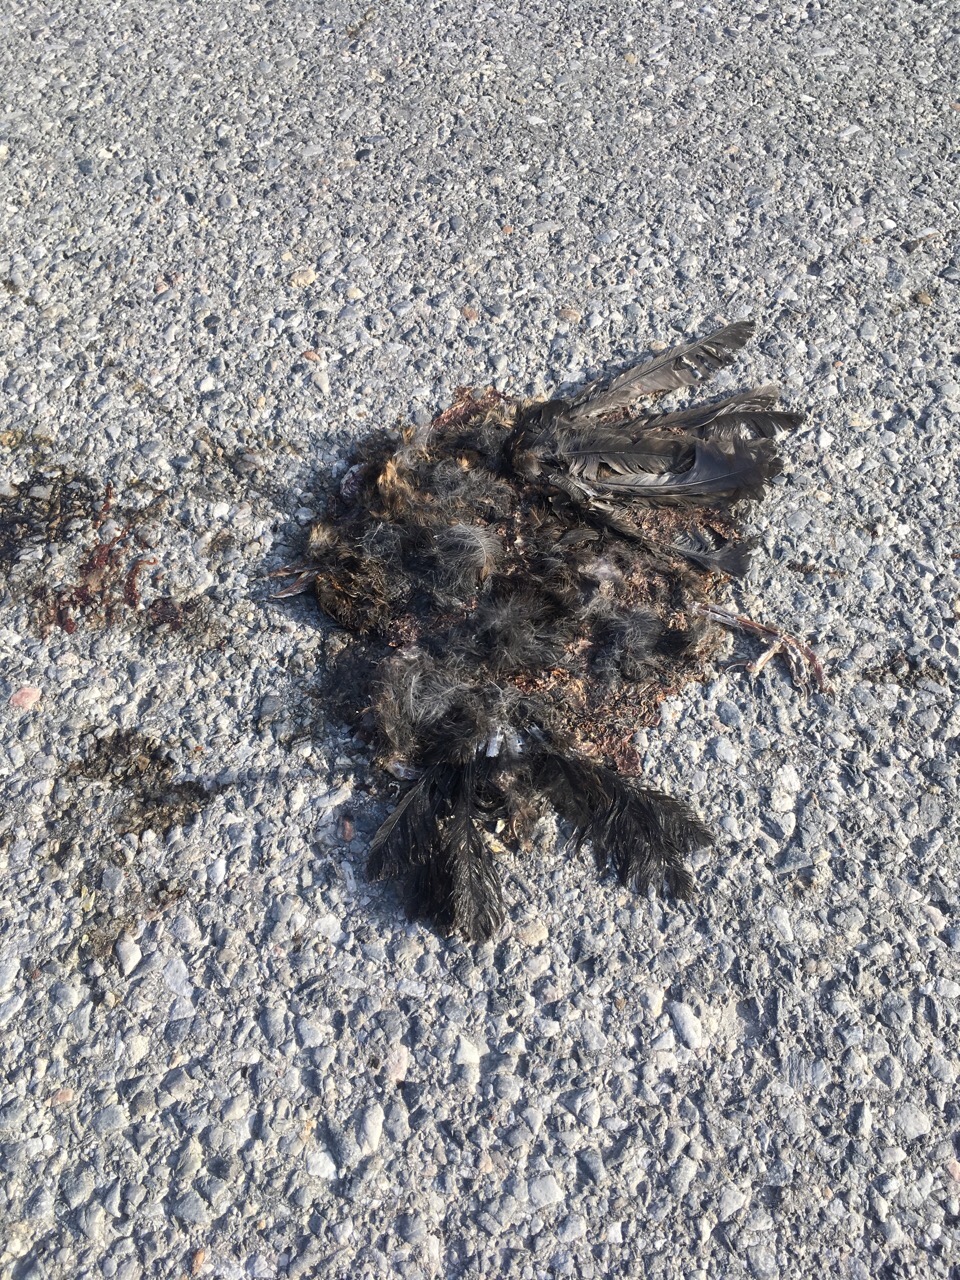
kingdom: Animalia
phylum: Chordata
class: Aves
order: Passeriformes
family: Turdidae
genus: Turdus
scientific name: Turdus merula
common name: Common blackbird
